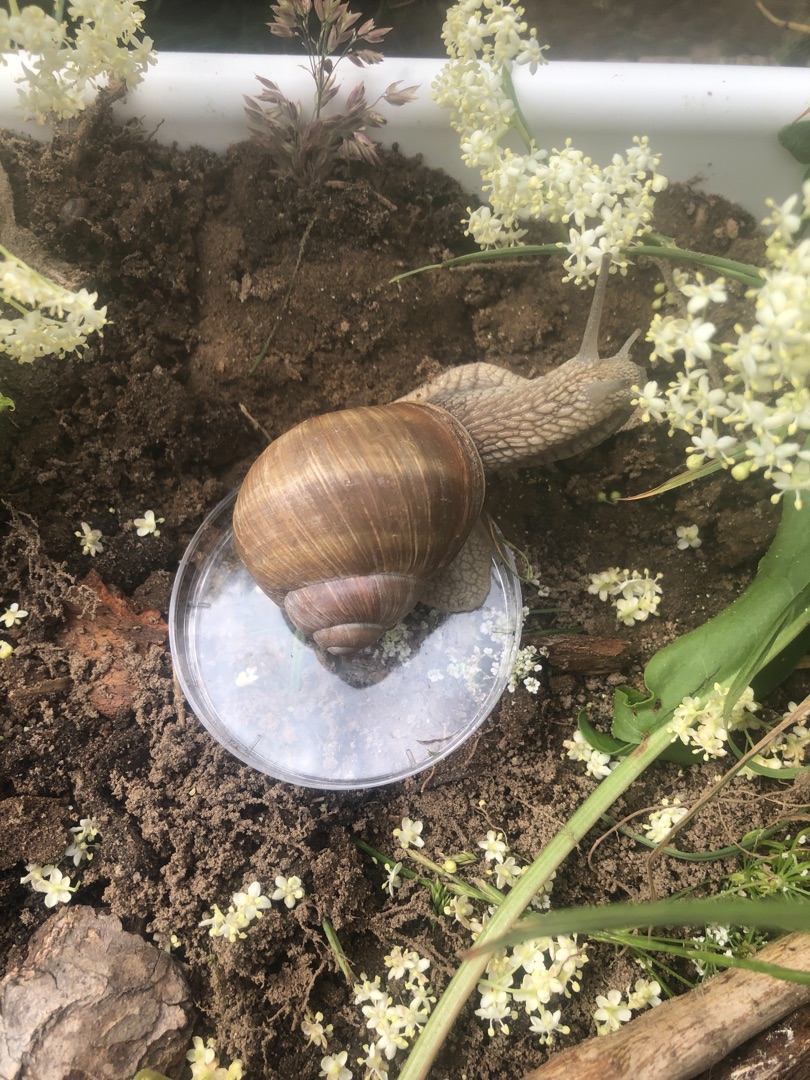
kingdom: Animalia
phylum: Mollusca
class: Gastropoda
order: Stylommatophora
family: Helicidae
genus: Helix
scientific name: Helix pomatia
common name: Vinbjergsnegl
